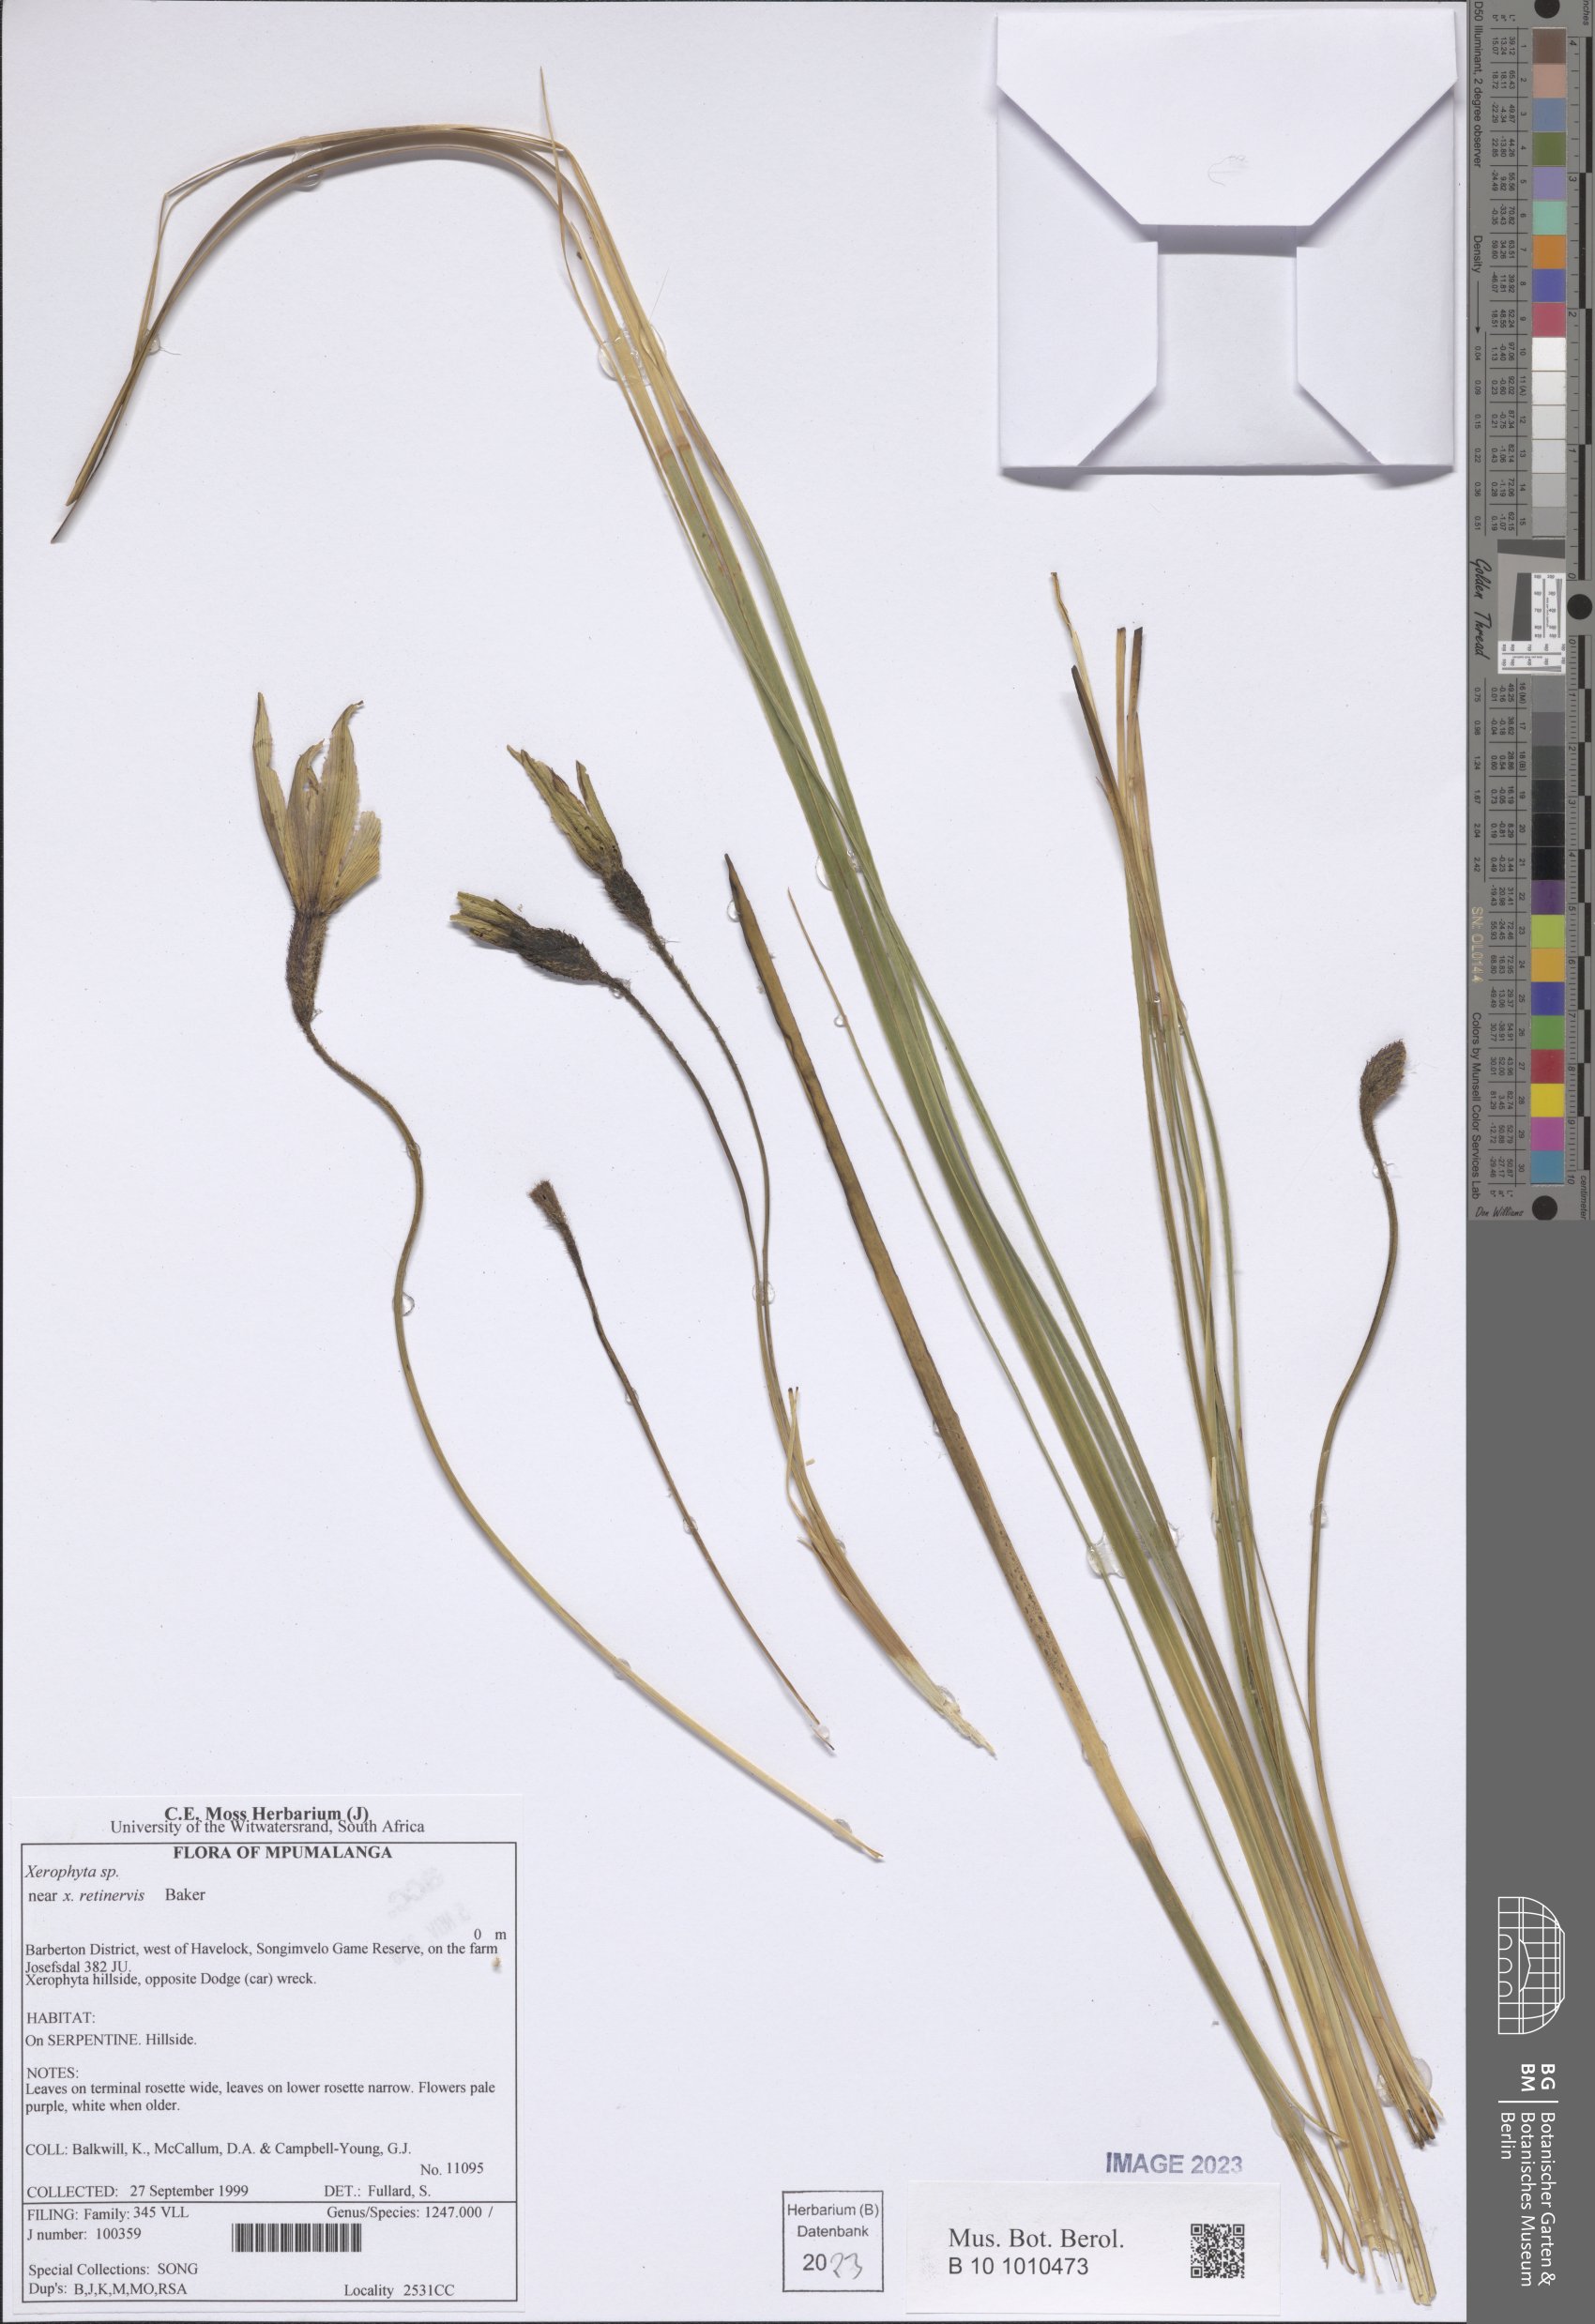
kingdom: Plantae
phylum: Tracheophyta
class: Liliopsida
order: Pandanales
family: Velloziaceae
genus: Xerophyta
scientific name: Xerophyta retinervis
